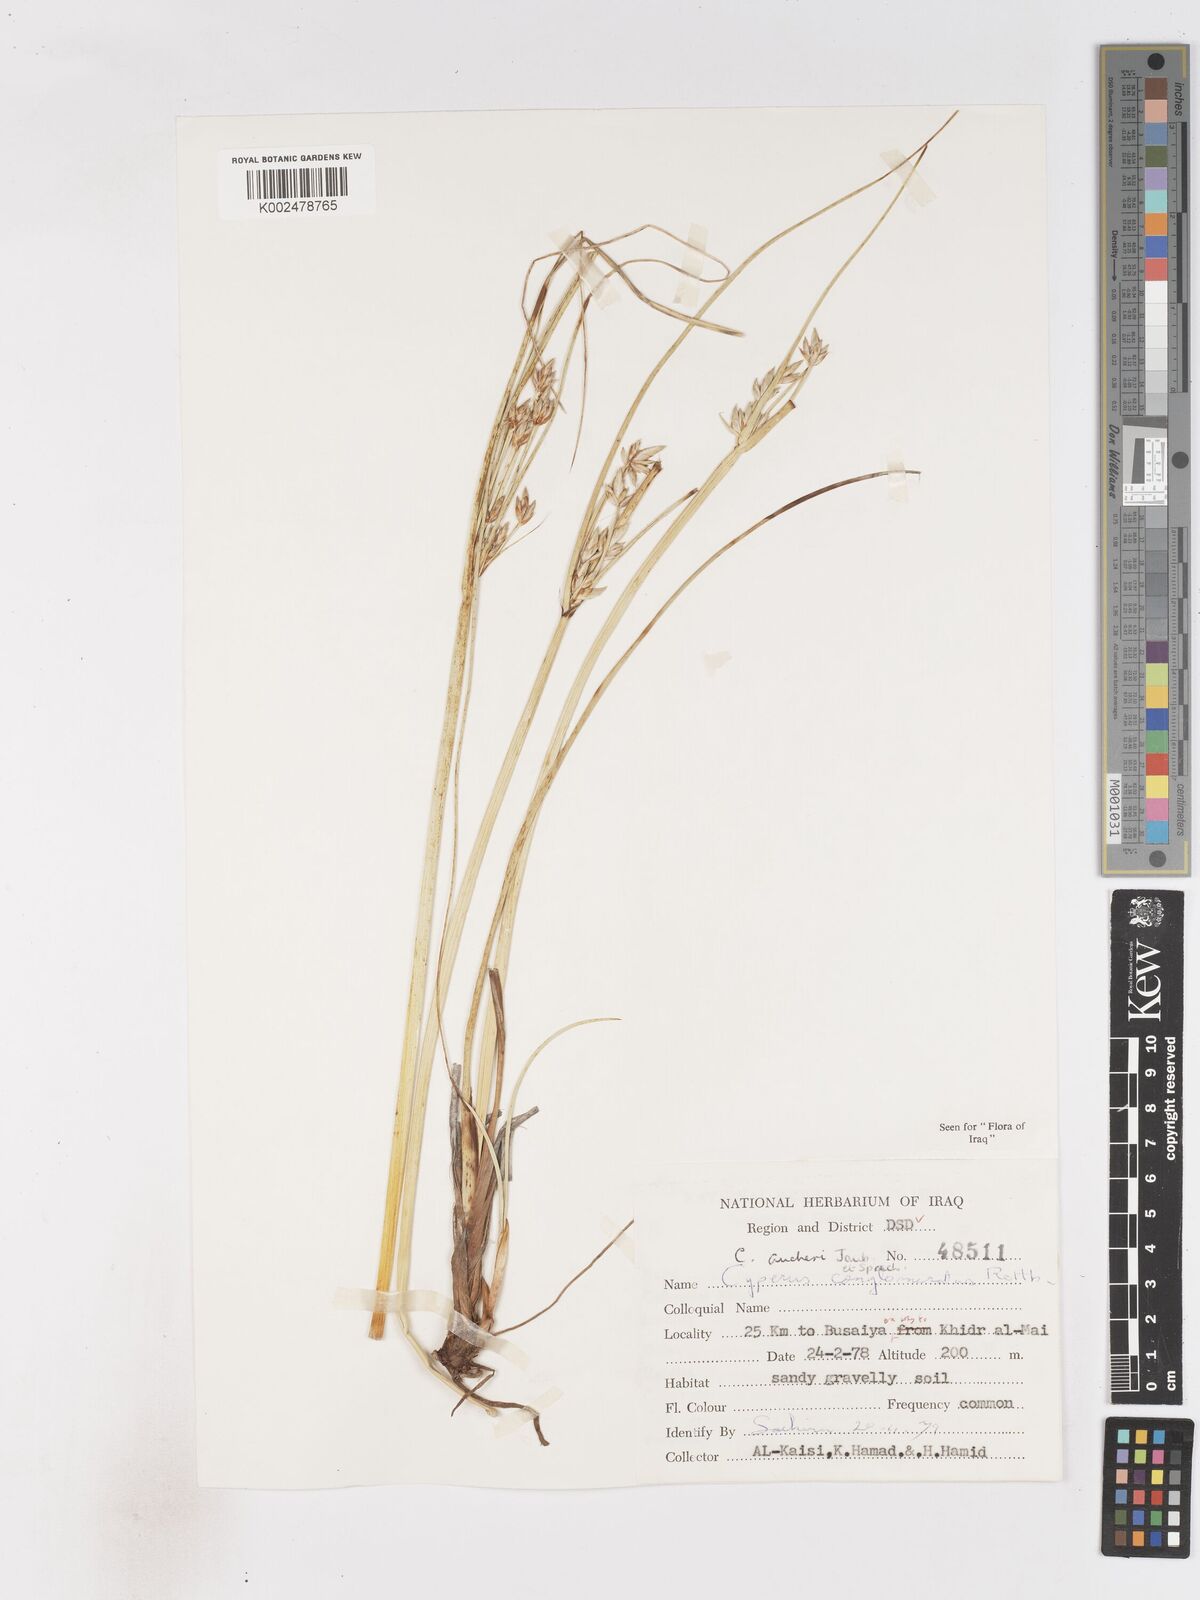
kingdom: Plantae
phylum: Tracheophyta
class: Liliopsida
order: Poales
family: Cyperaceae
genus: Cyperus
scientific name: Cyperus aucheri
